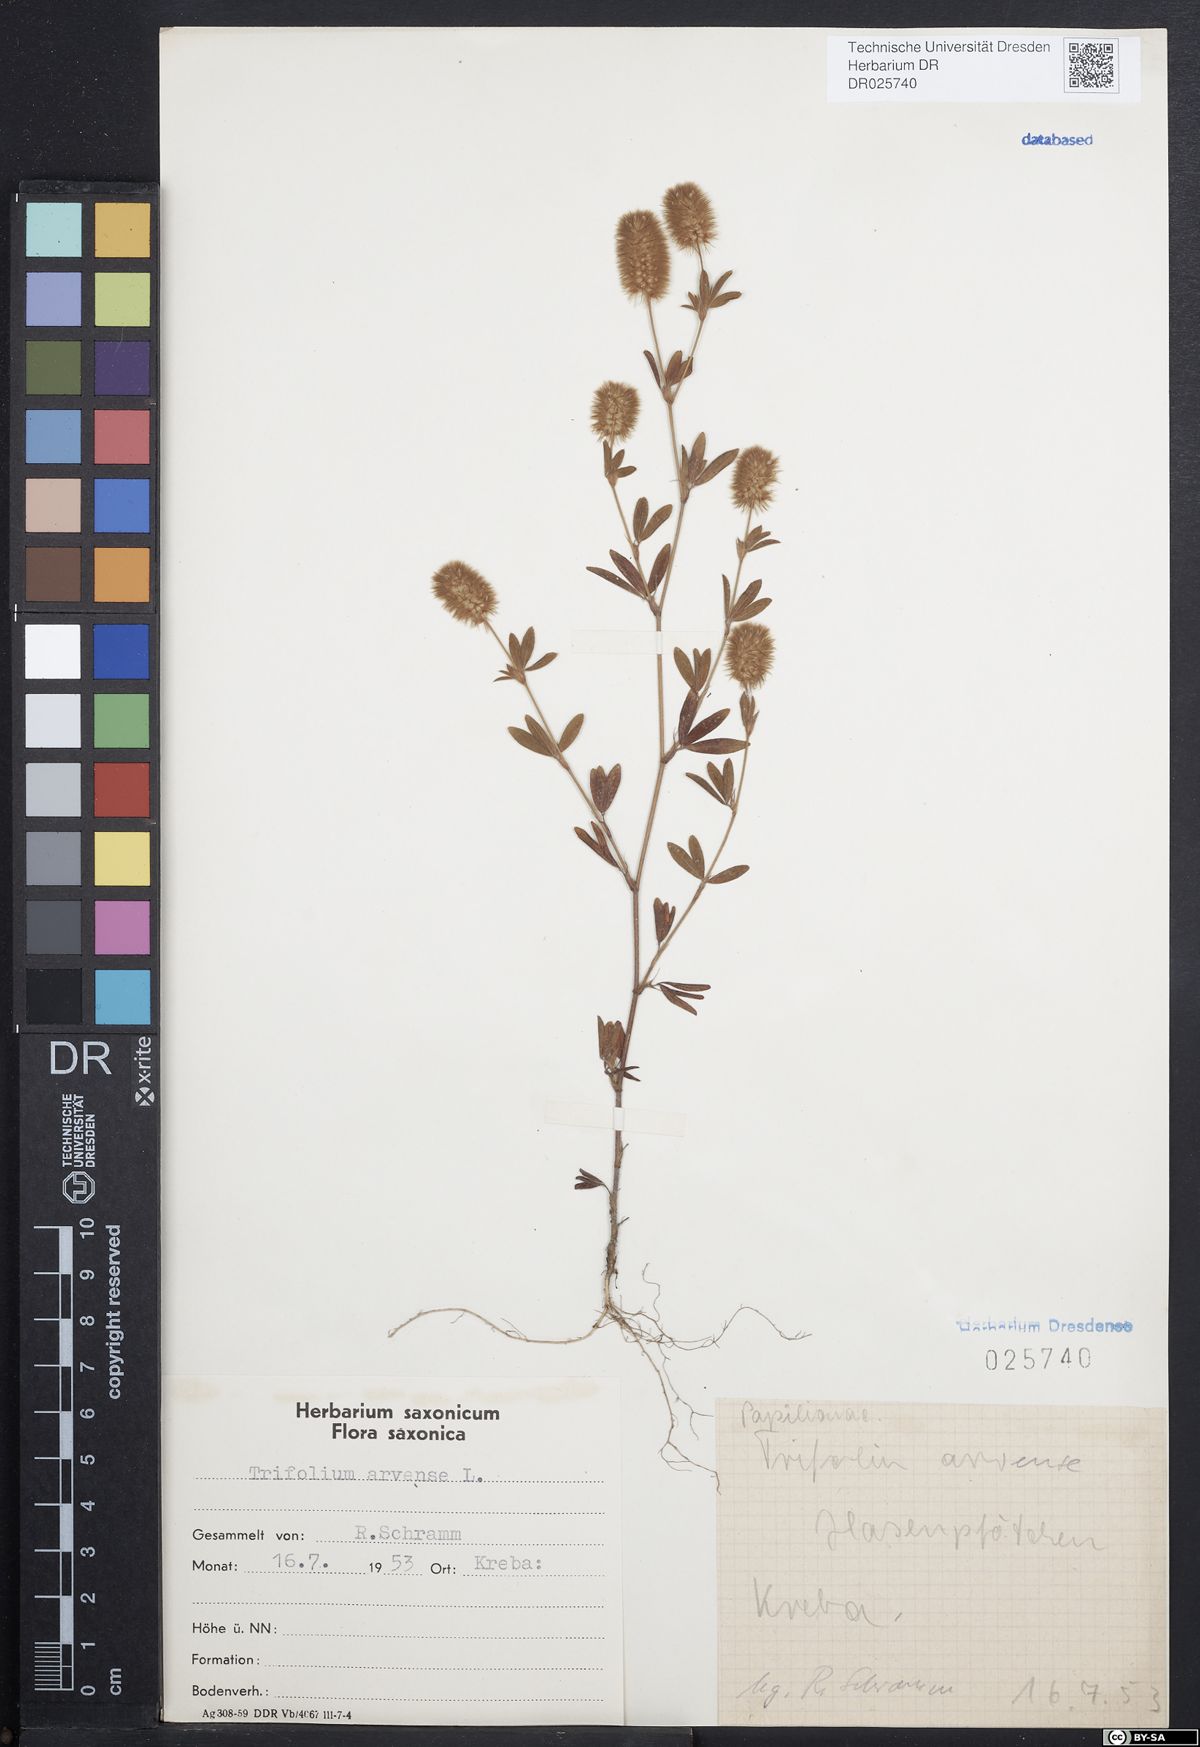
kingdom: Plantae
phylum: Tracheophyta
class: Magnoliopsida
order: Fabales
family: Fabaceae
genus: Trifolium
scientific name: Trifolium arvense
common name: Hare's-foot clover
